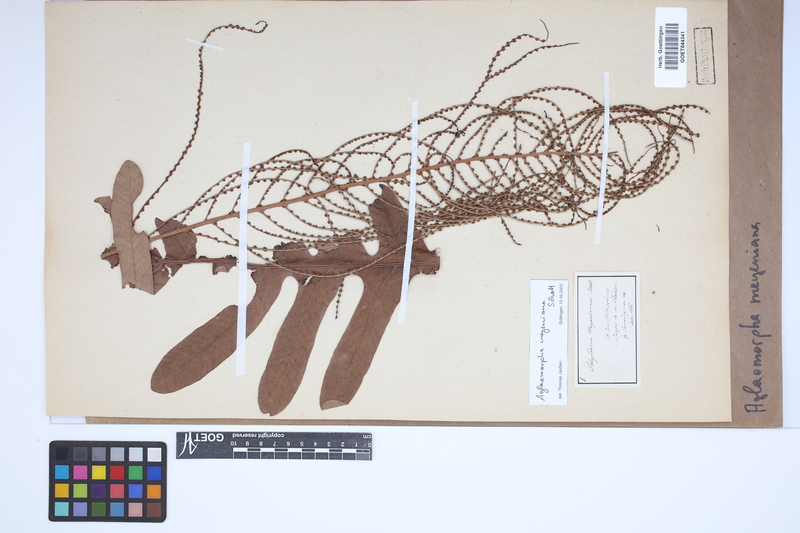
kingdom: Plantae
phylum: Tracheophyta
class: Polypodiopsida
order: Polypodiales
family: Polypodiaceae
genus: Drynaria
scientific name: Drynaria meyeniana
